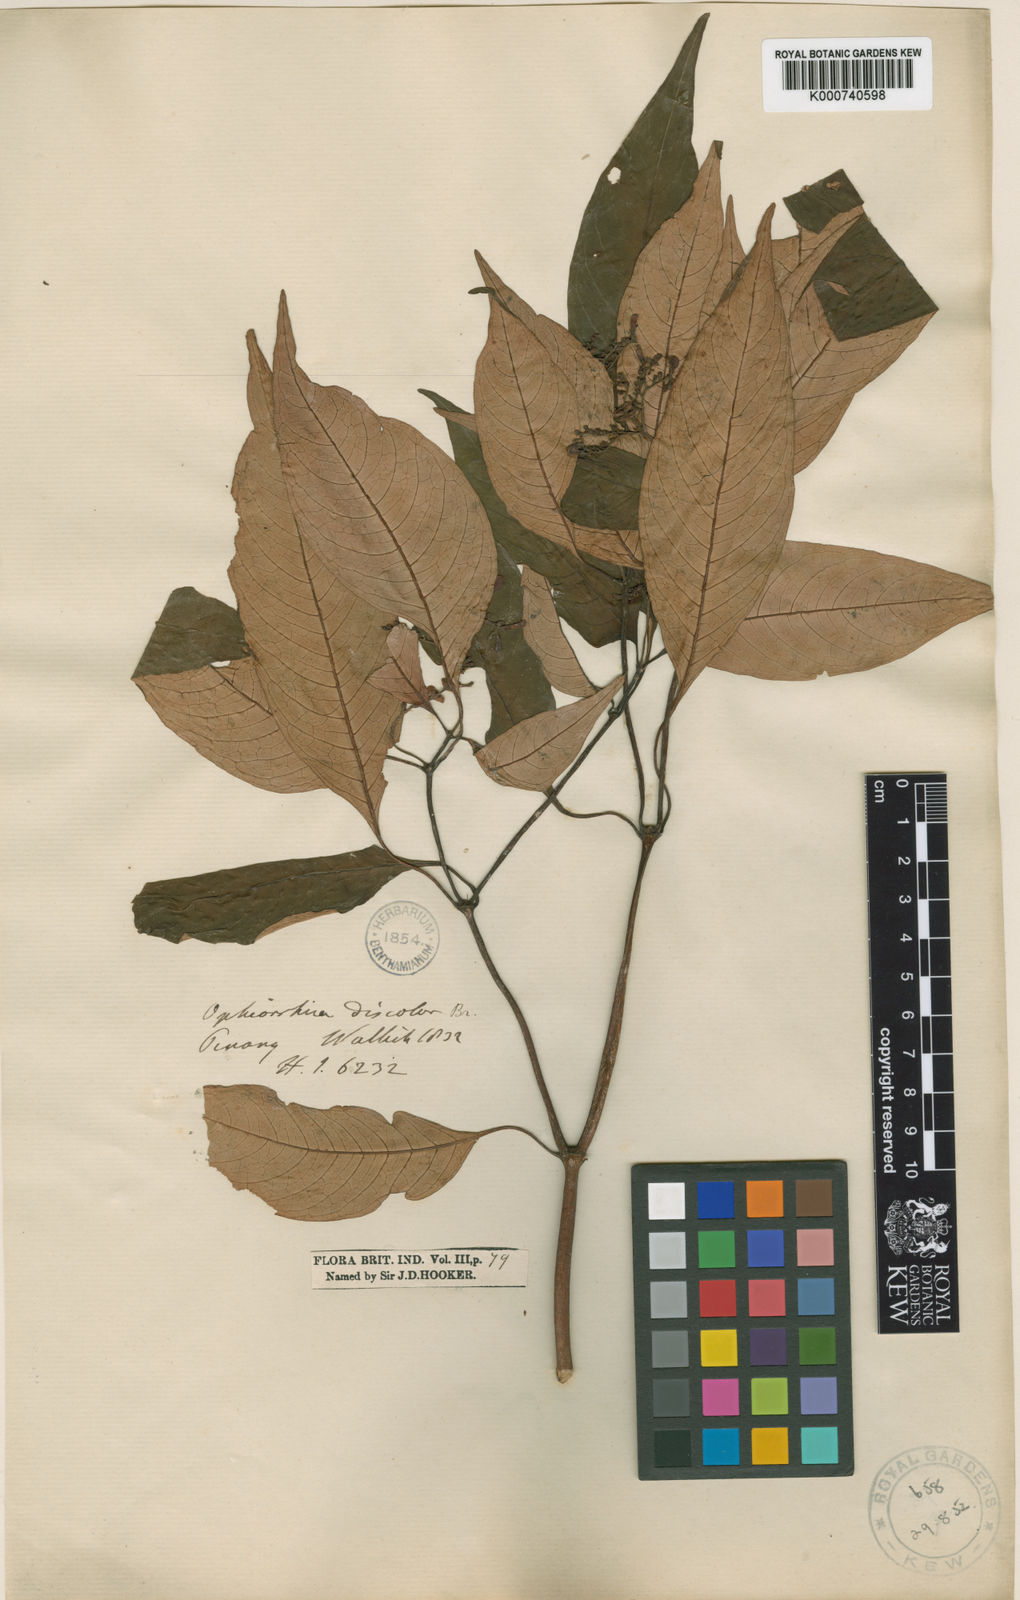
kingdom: Plantae
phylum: Tracheophyta
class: Magnoliopsida
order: Gentianales
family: Rubiaceae
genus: Ophiorrhiza
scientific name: Ophiorrhiza
